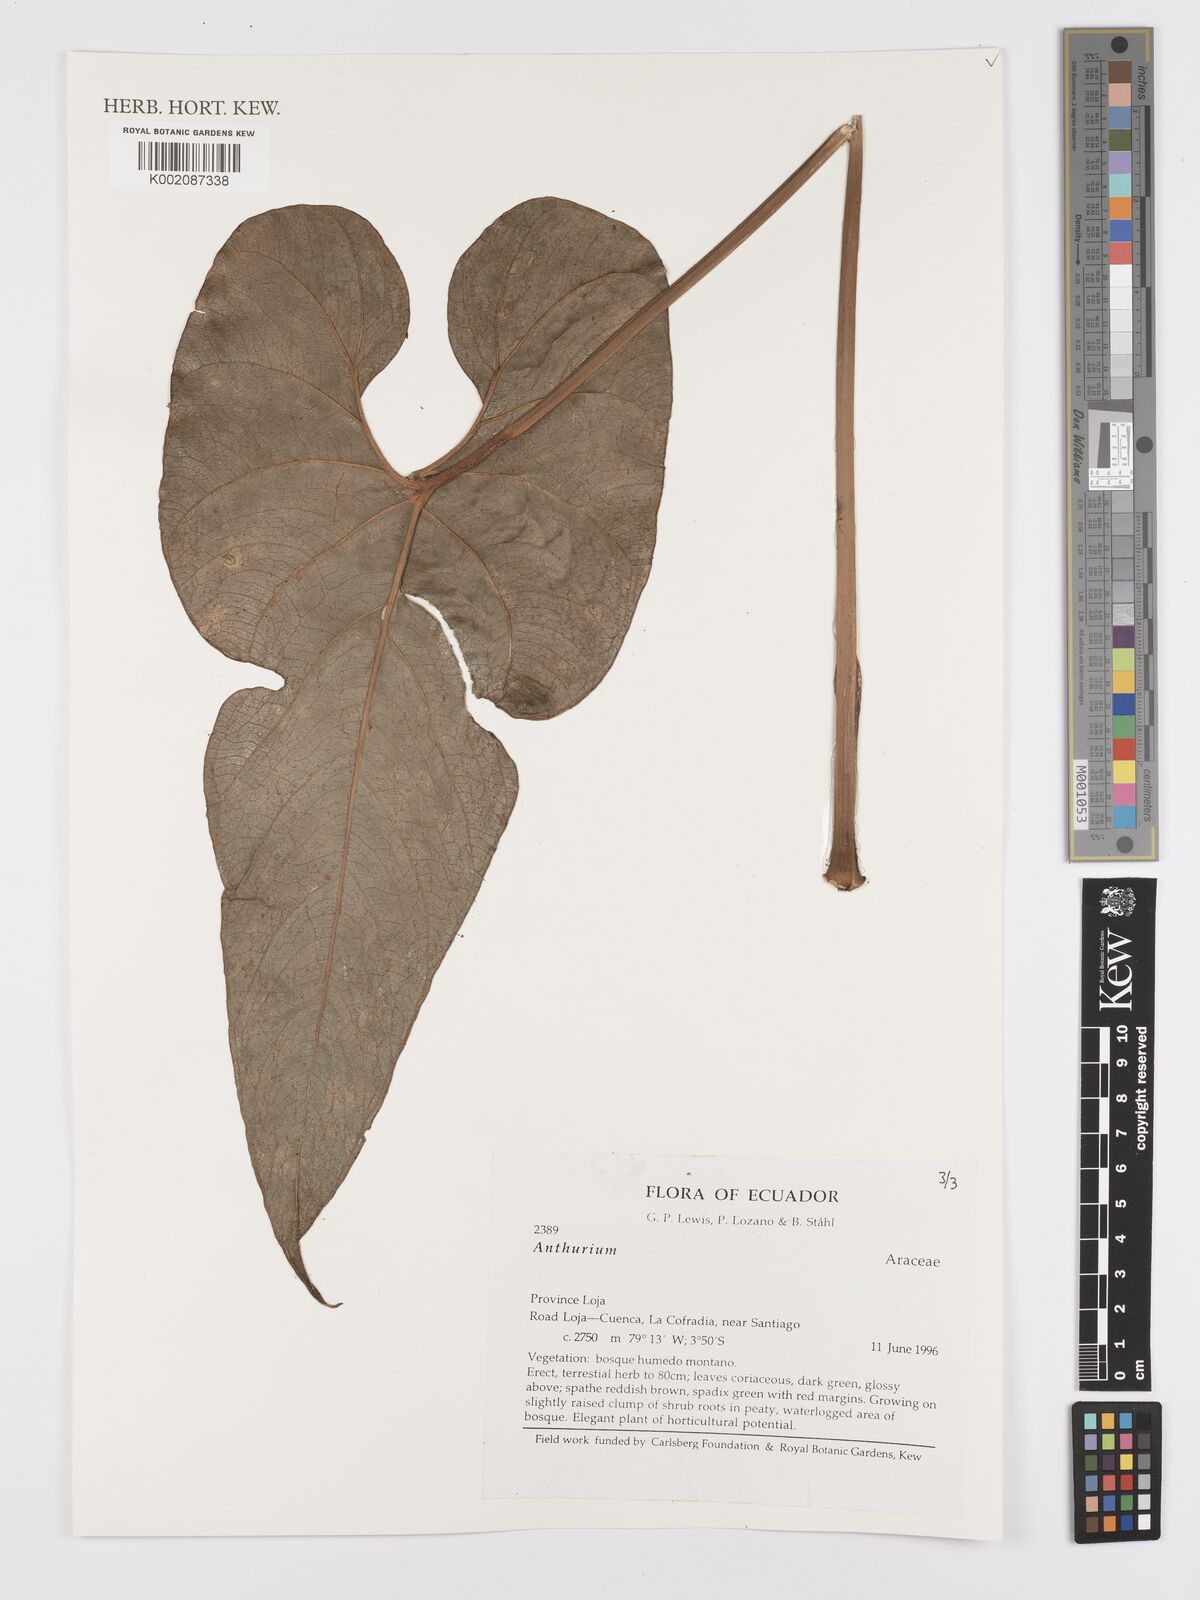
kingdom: Plantae
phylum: Tracheophyta
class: Liliopsida
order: Alismatales
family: Araceae
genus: Anthurium
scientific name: Anthurium
